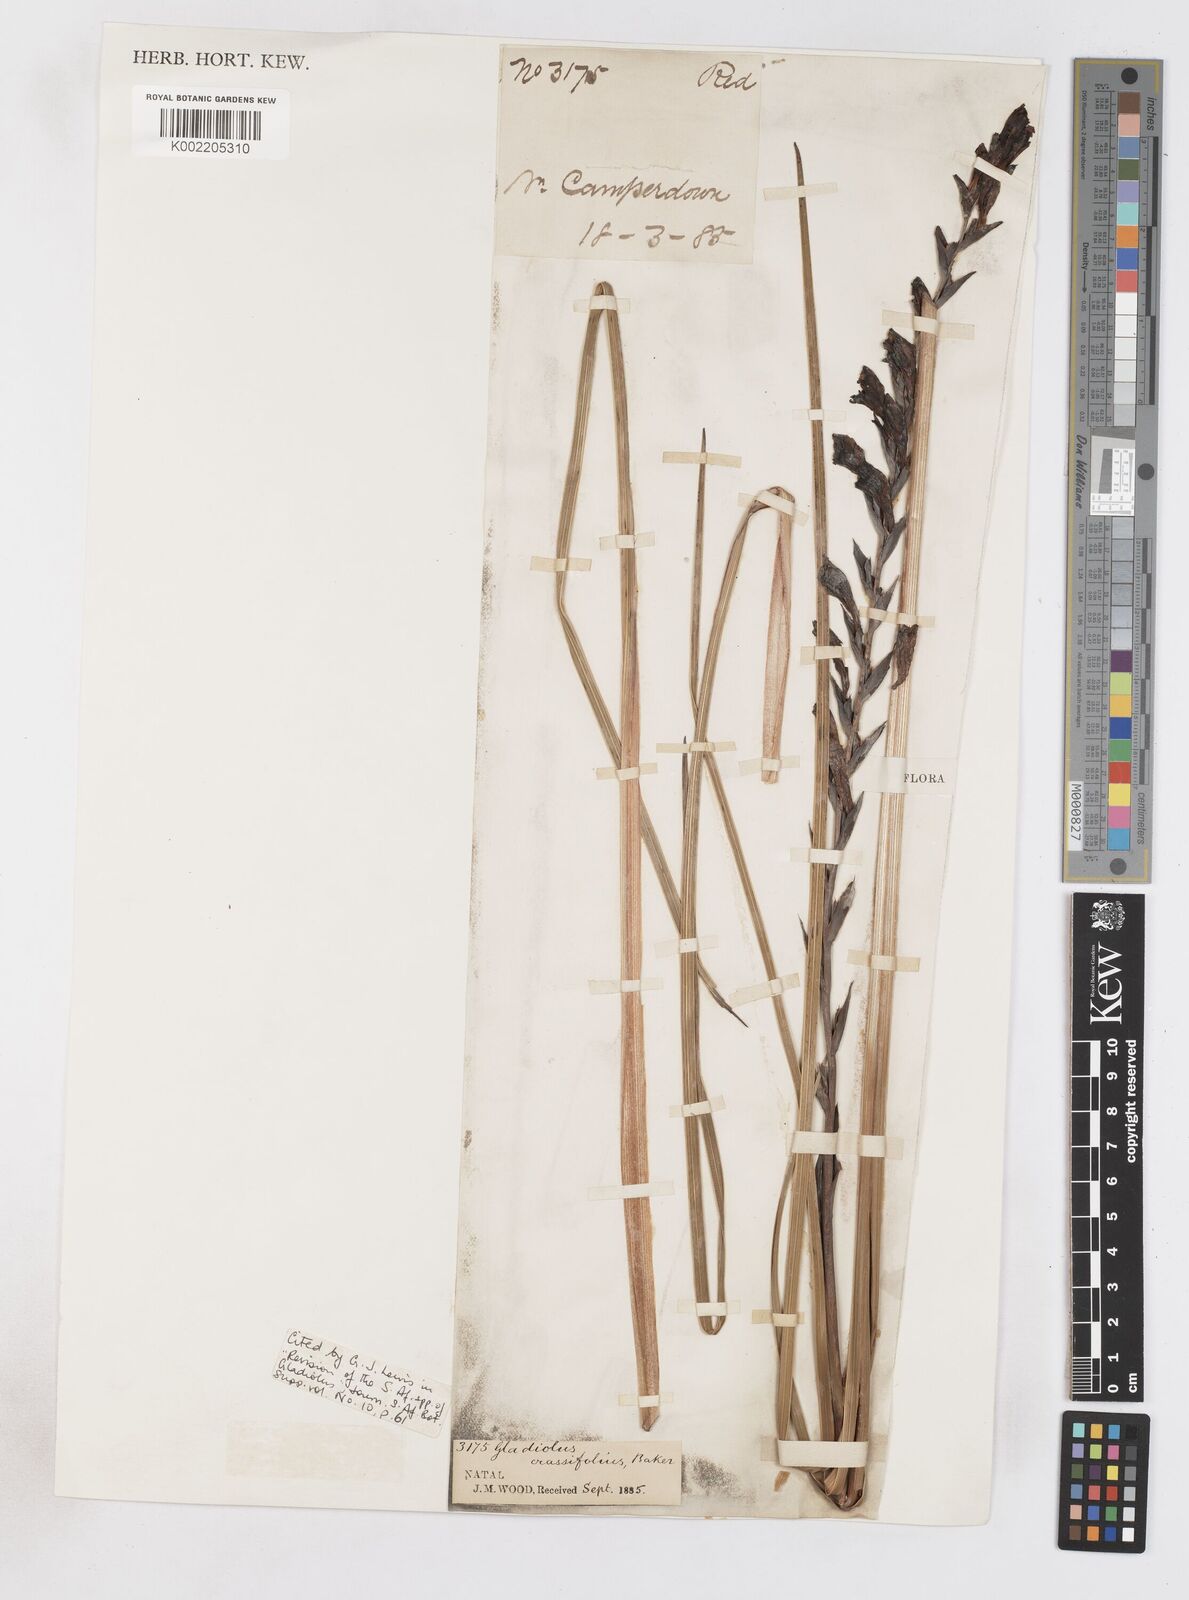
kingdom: Plantae
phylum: Tracheophyta
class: Liliopsida
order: Asparagales
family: Iridaceae
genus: Gladiolus
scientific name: Gladiolus crassifolius
